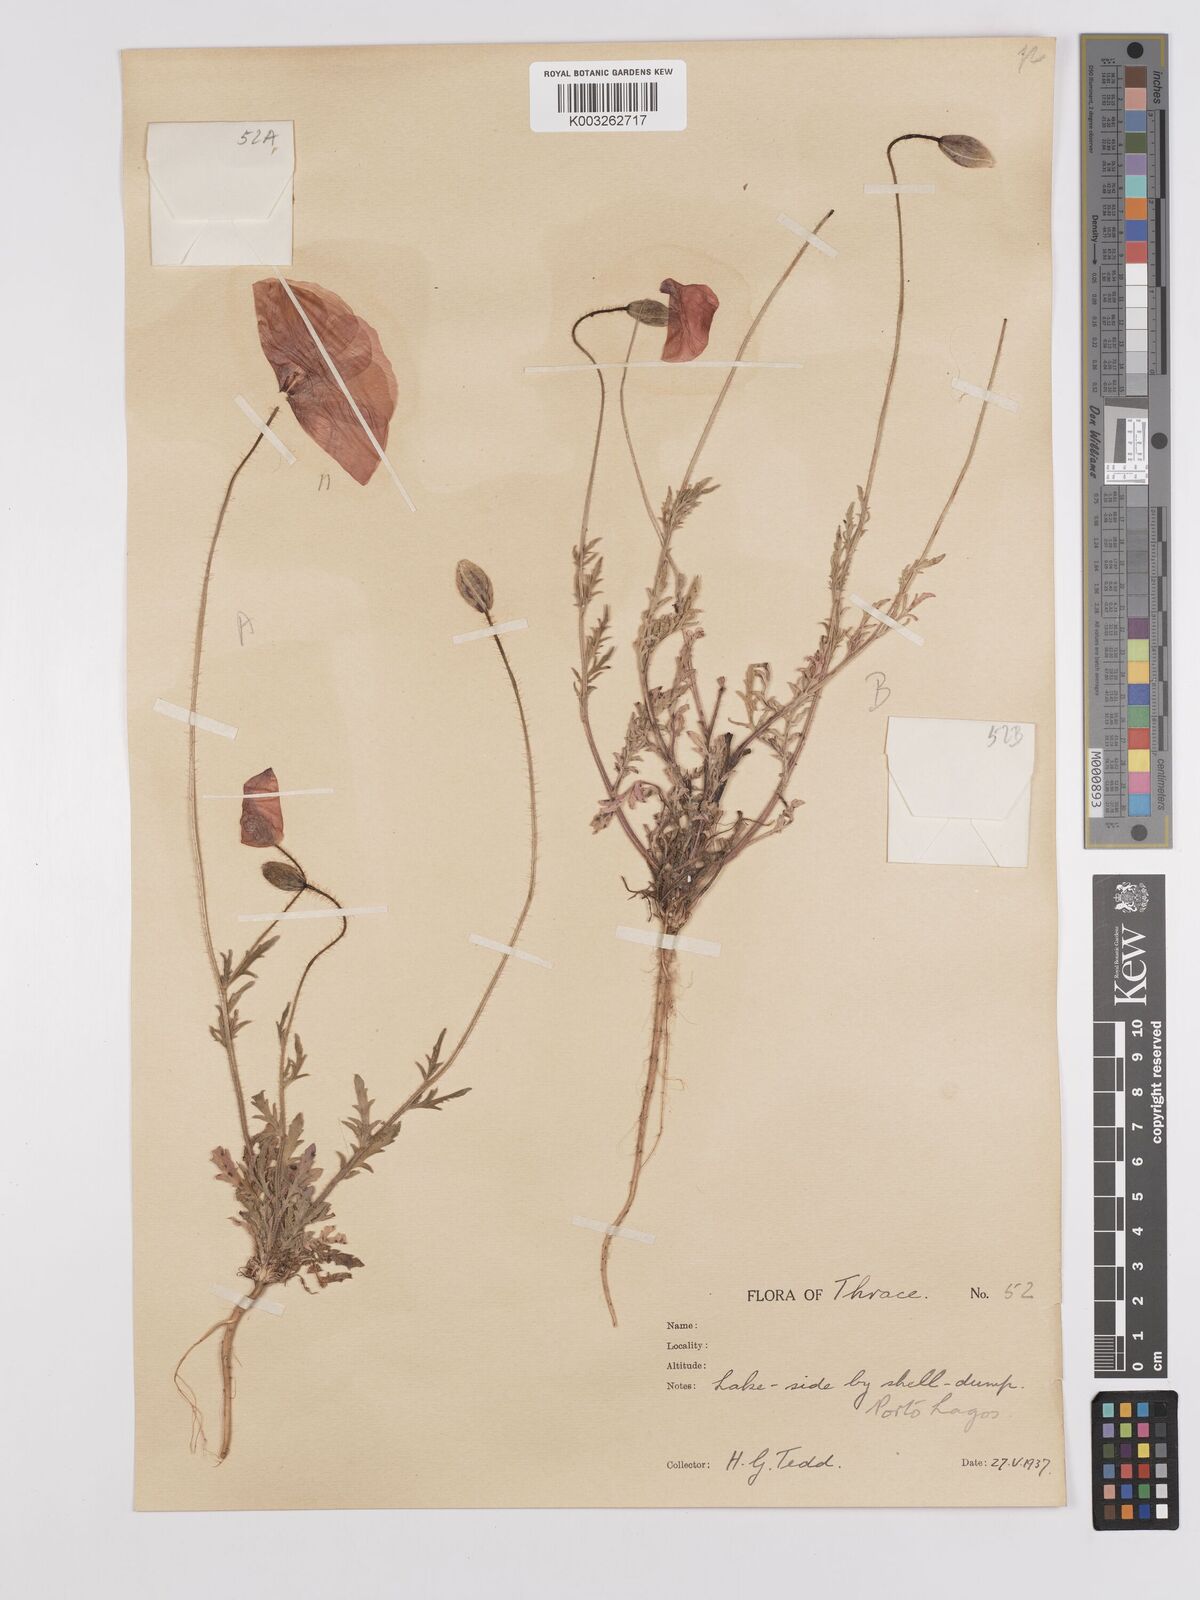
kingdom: Plantae
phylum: Tracheophyta
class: Magnoliopsida
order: Ranunculales
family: Papaveraceae
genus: Papaver
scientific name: Papaver
